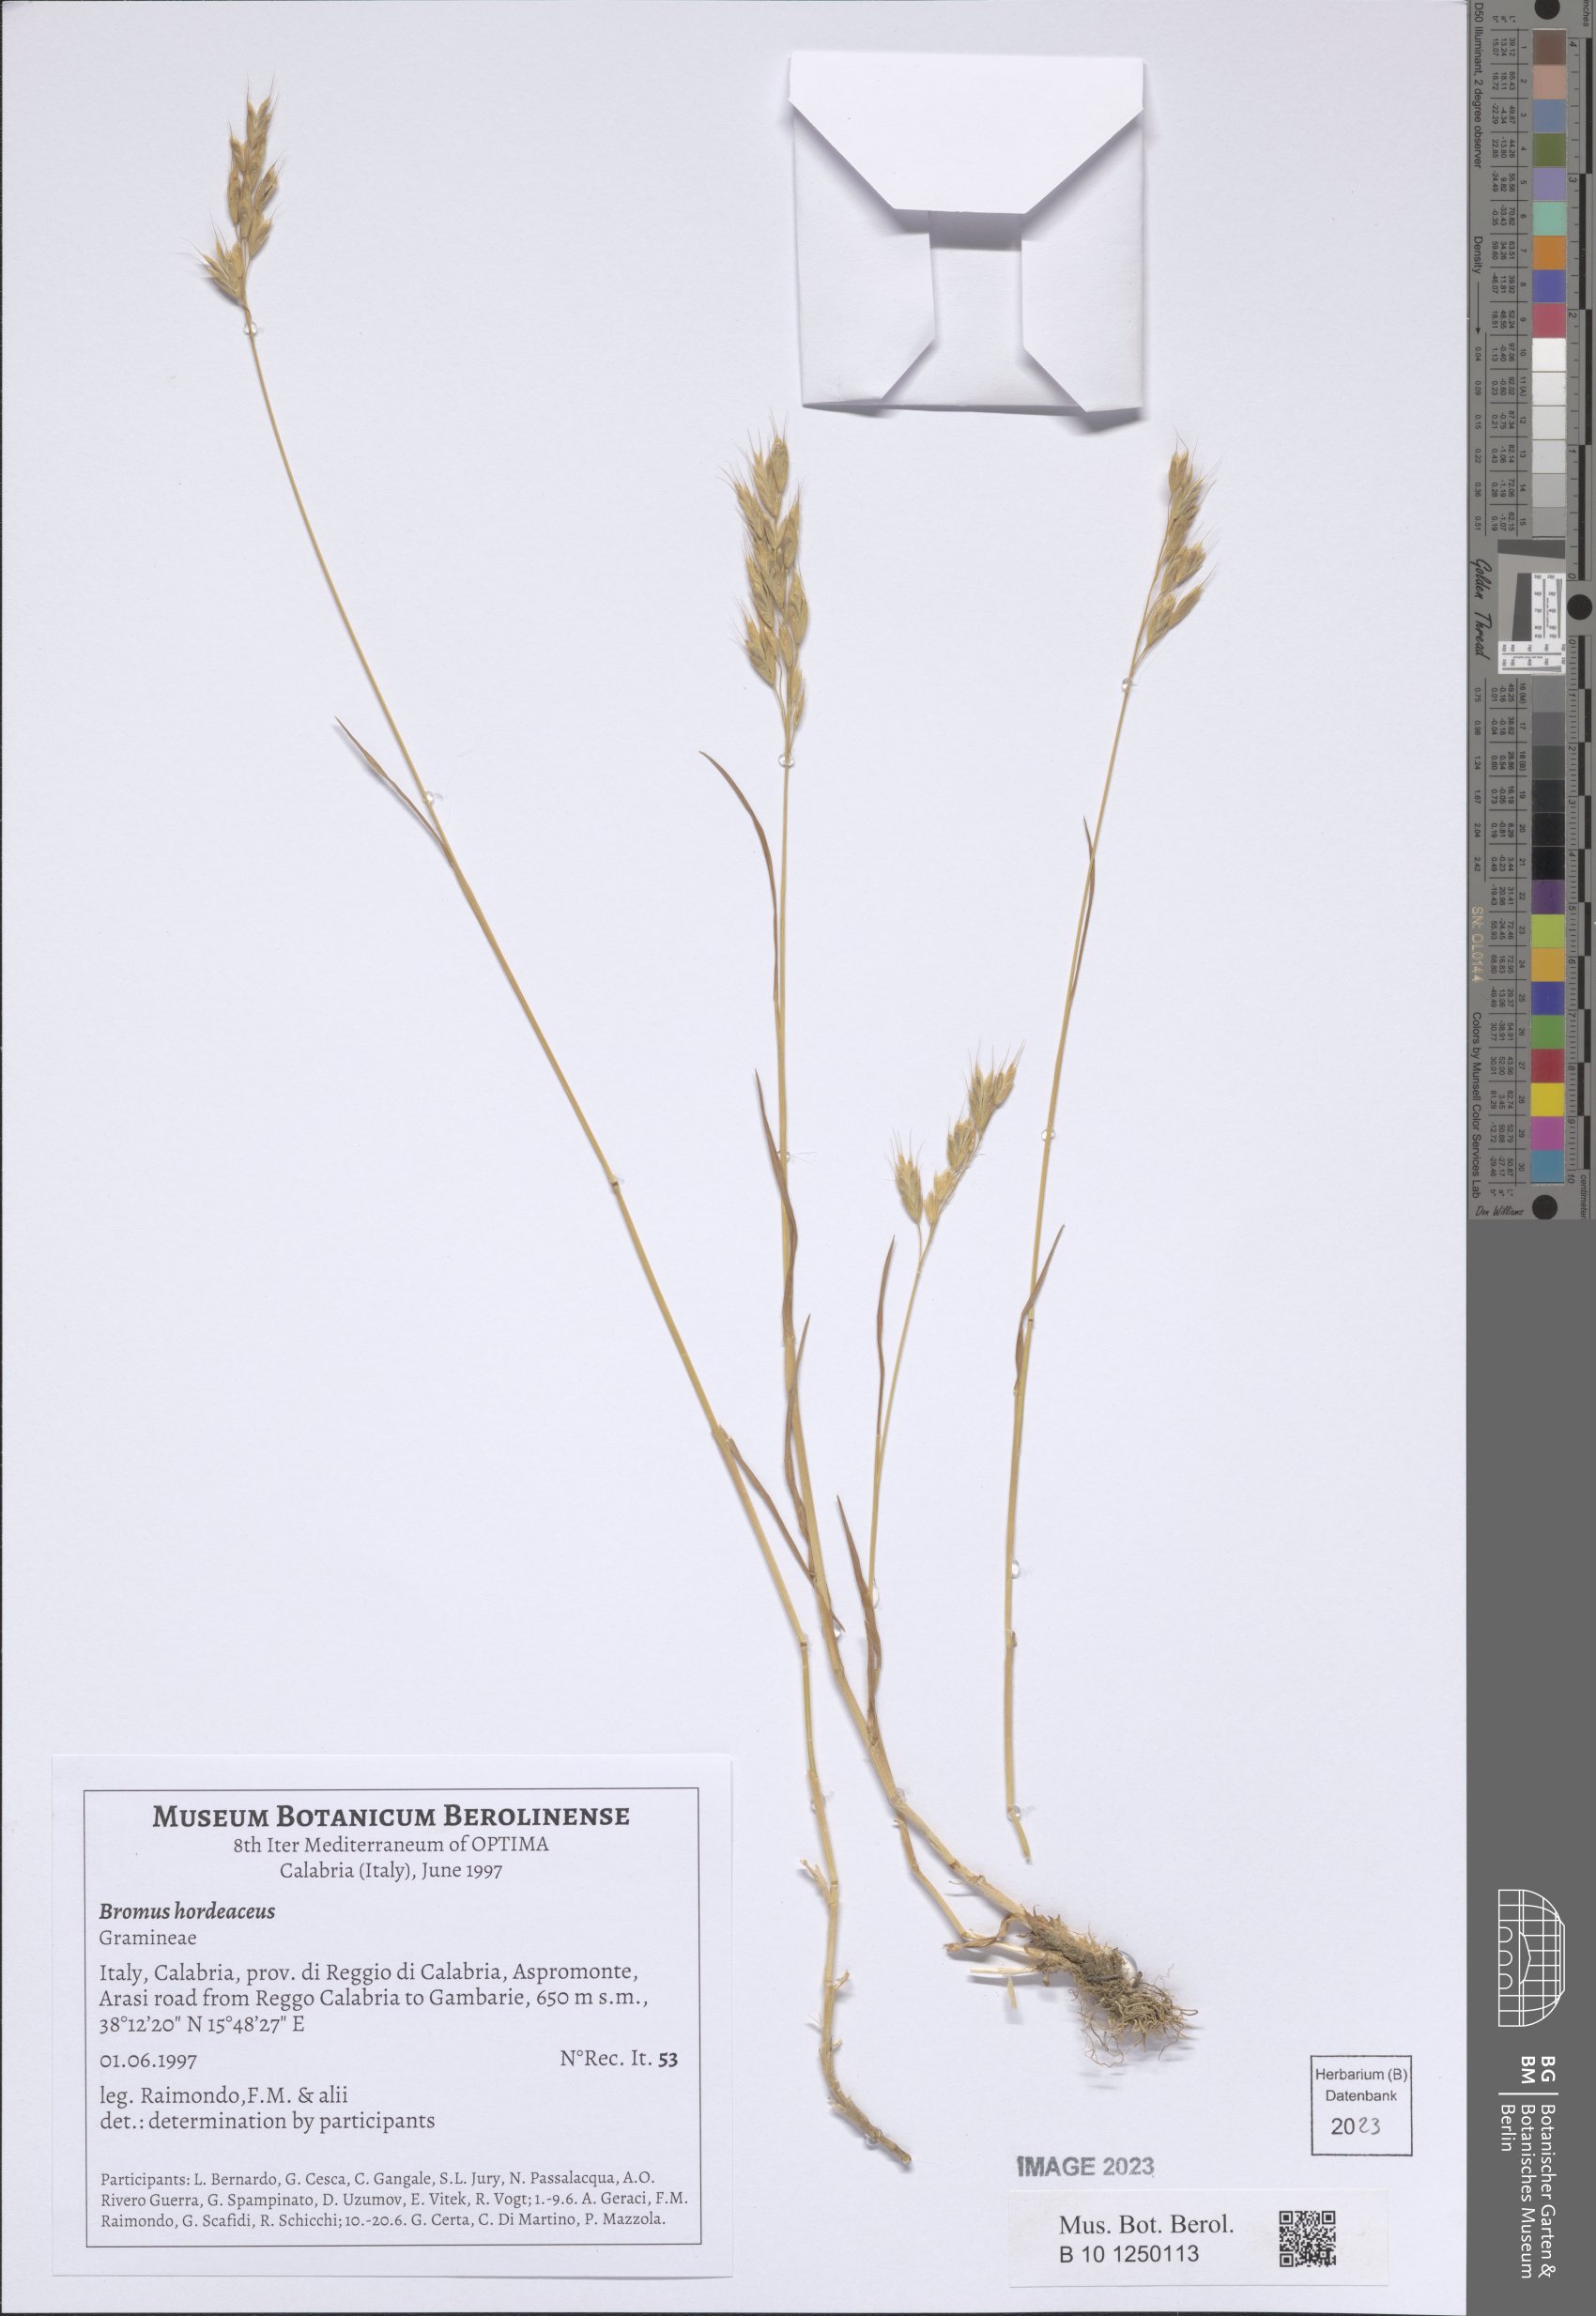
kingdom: Plantae
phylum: Tracheophyta
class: Liliopsida
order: Poales
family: Poaceae
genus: Bromus
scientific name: Bromus hordeaceus
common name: Soft brome
